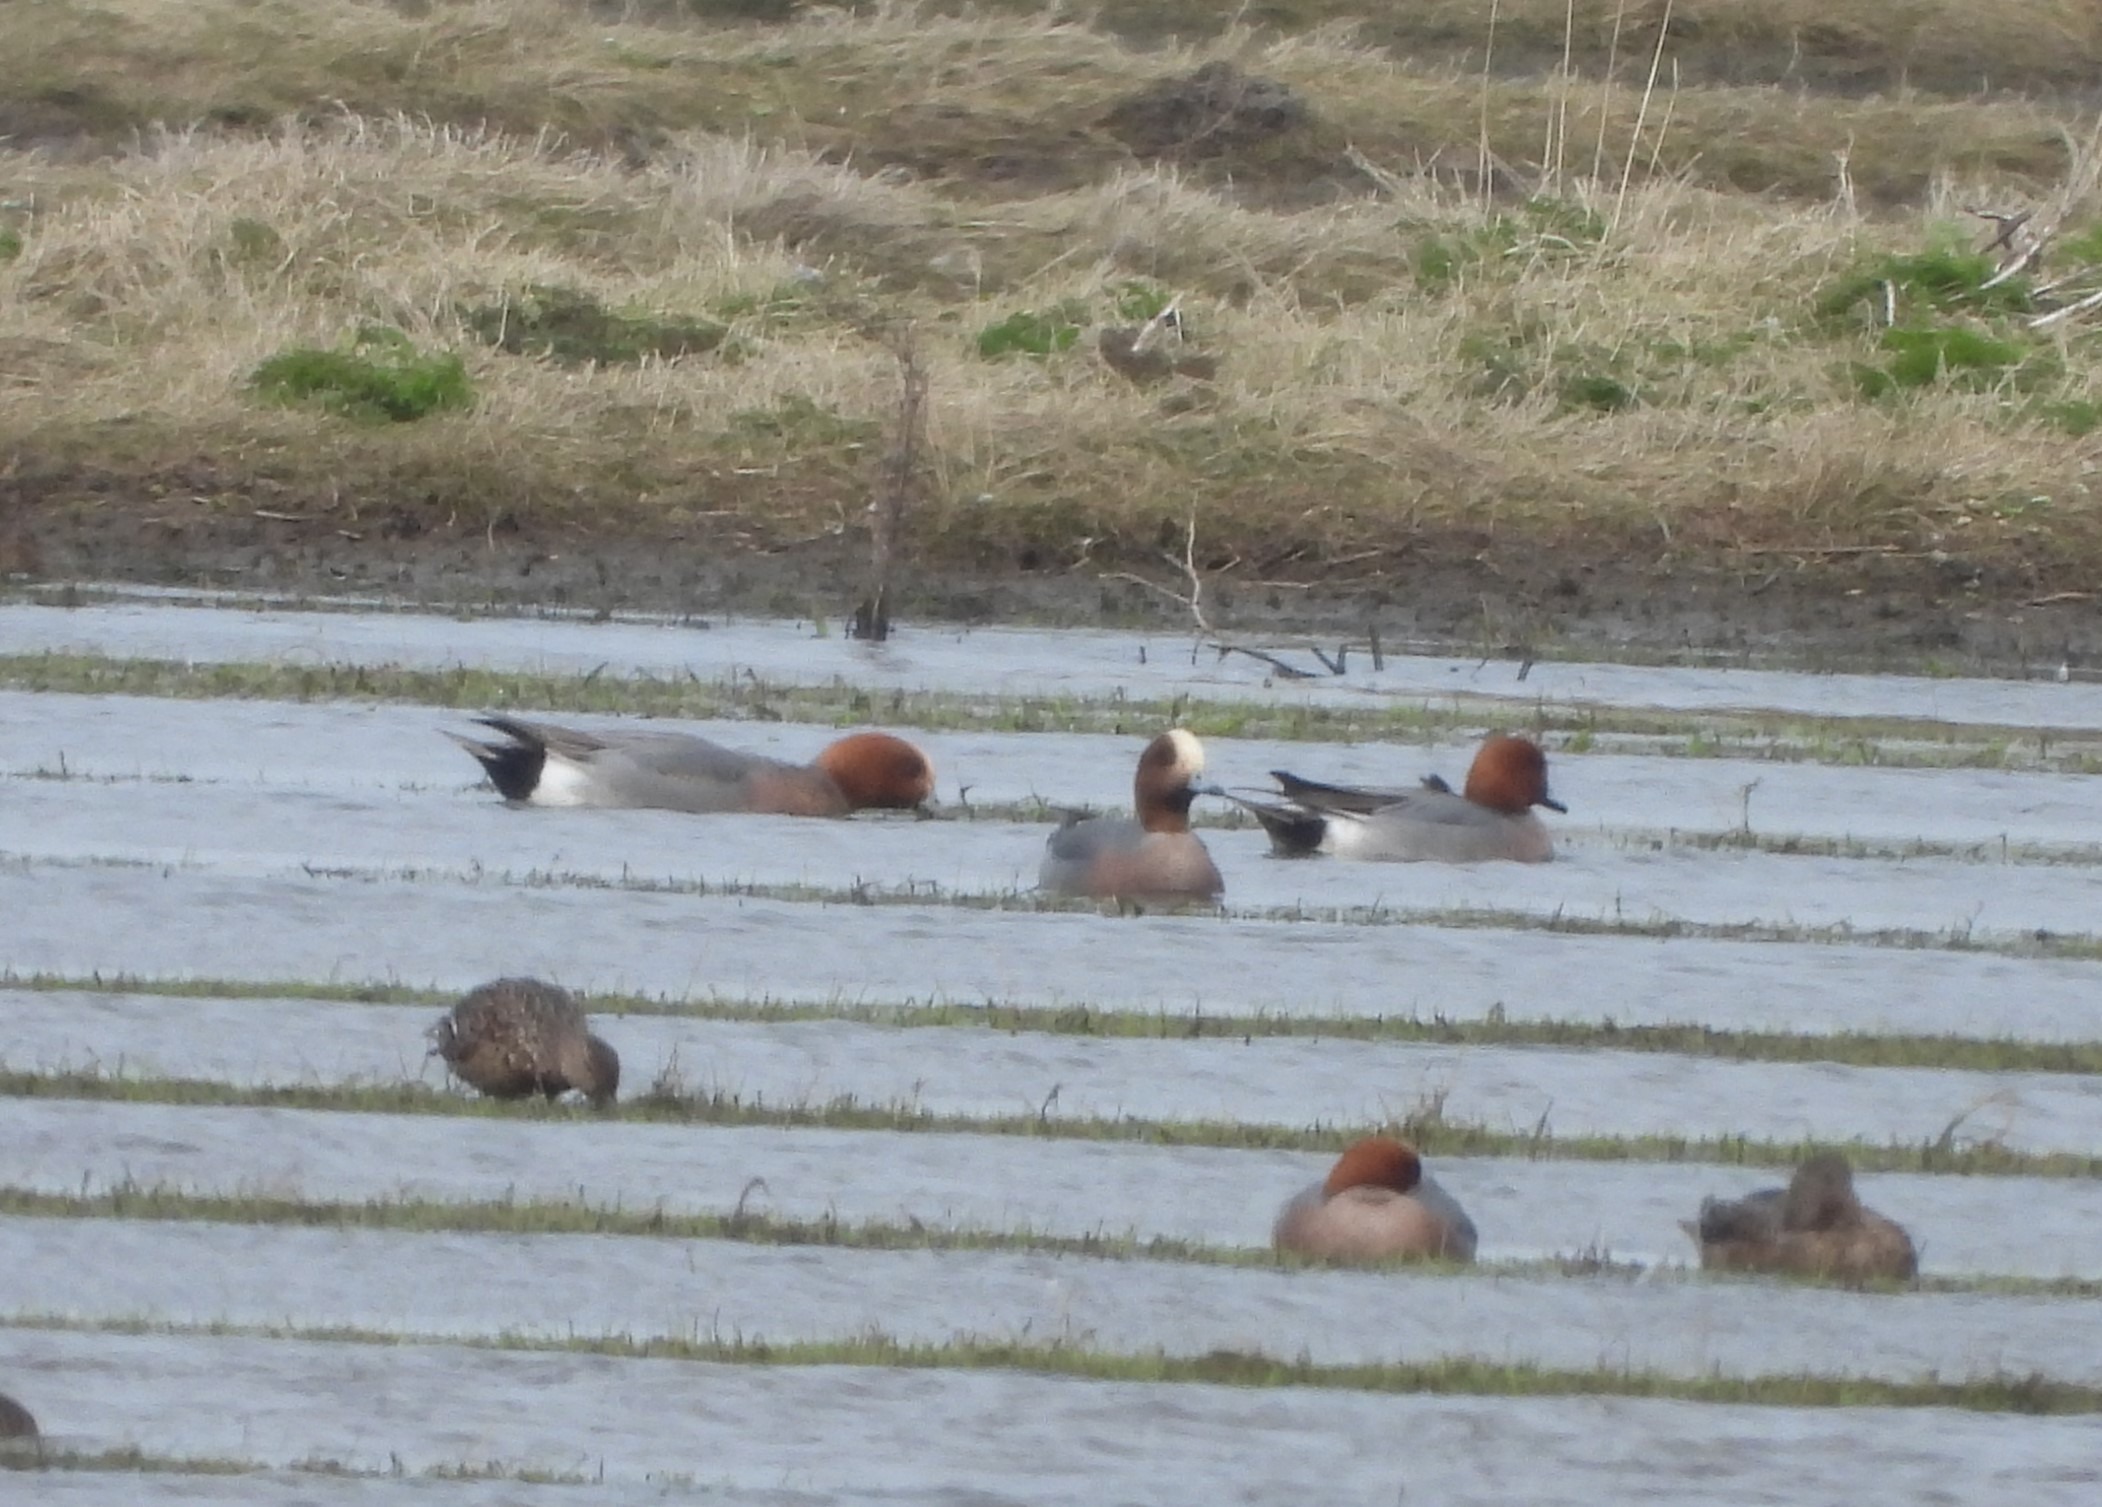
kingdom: Animalia
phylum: Chordata
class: Aves
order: Anseriformes
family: Anatidae
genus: Mareca
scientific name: Mareca penelope
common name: Pibeand
